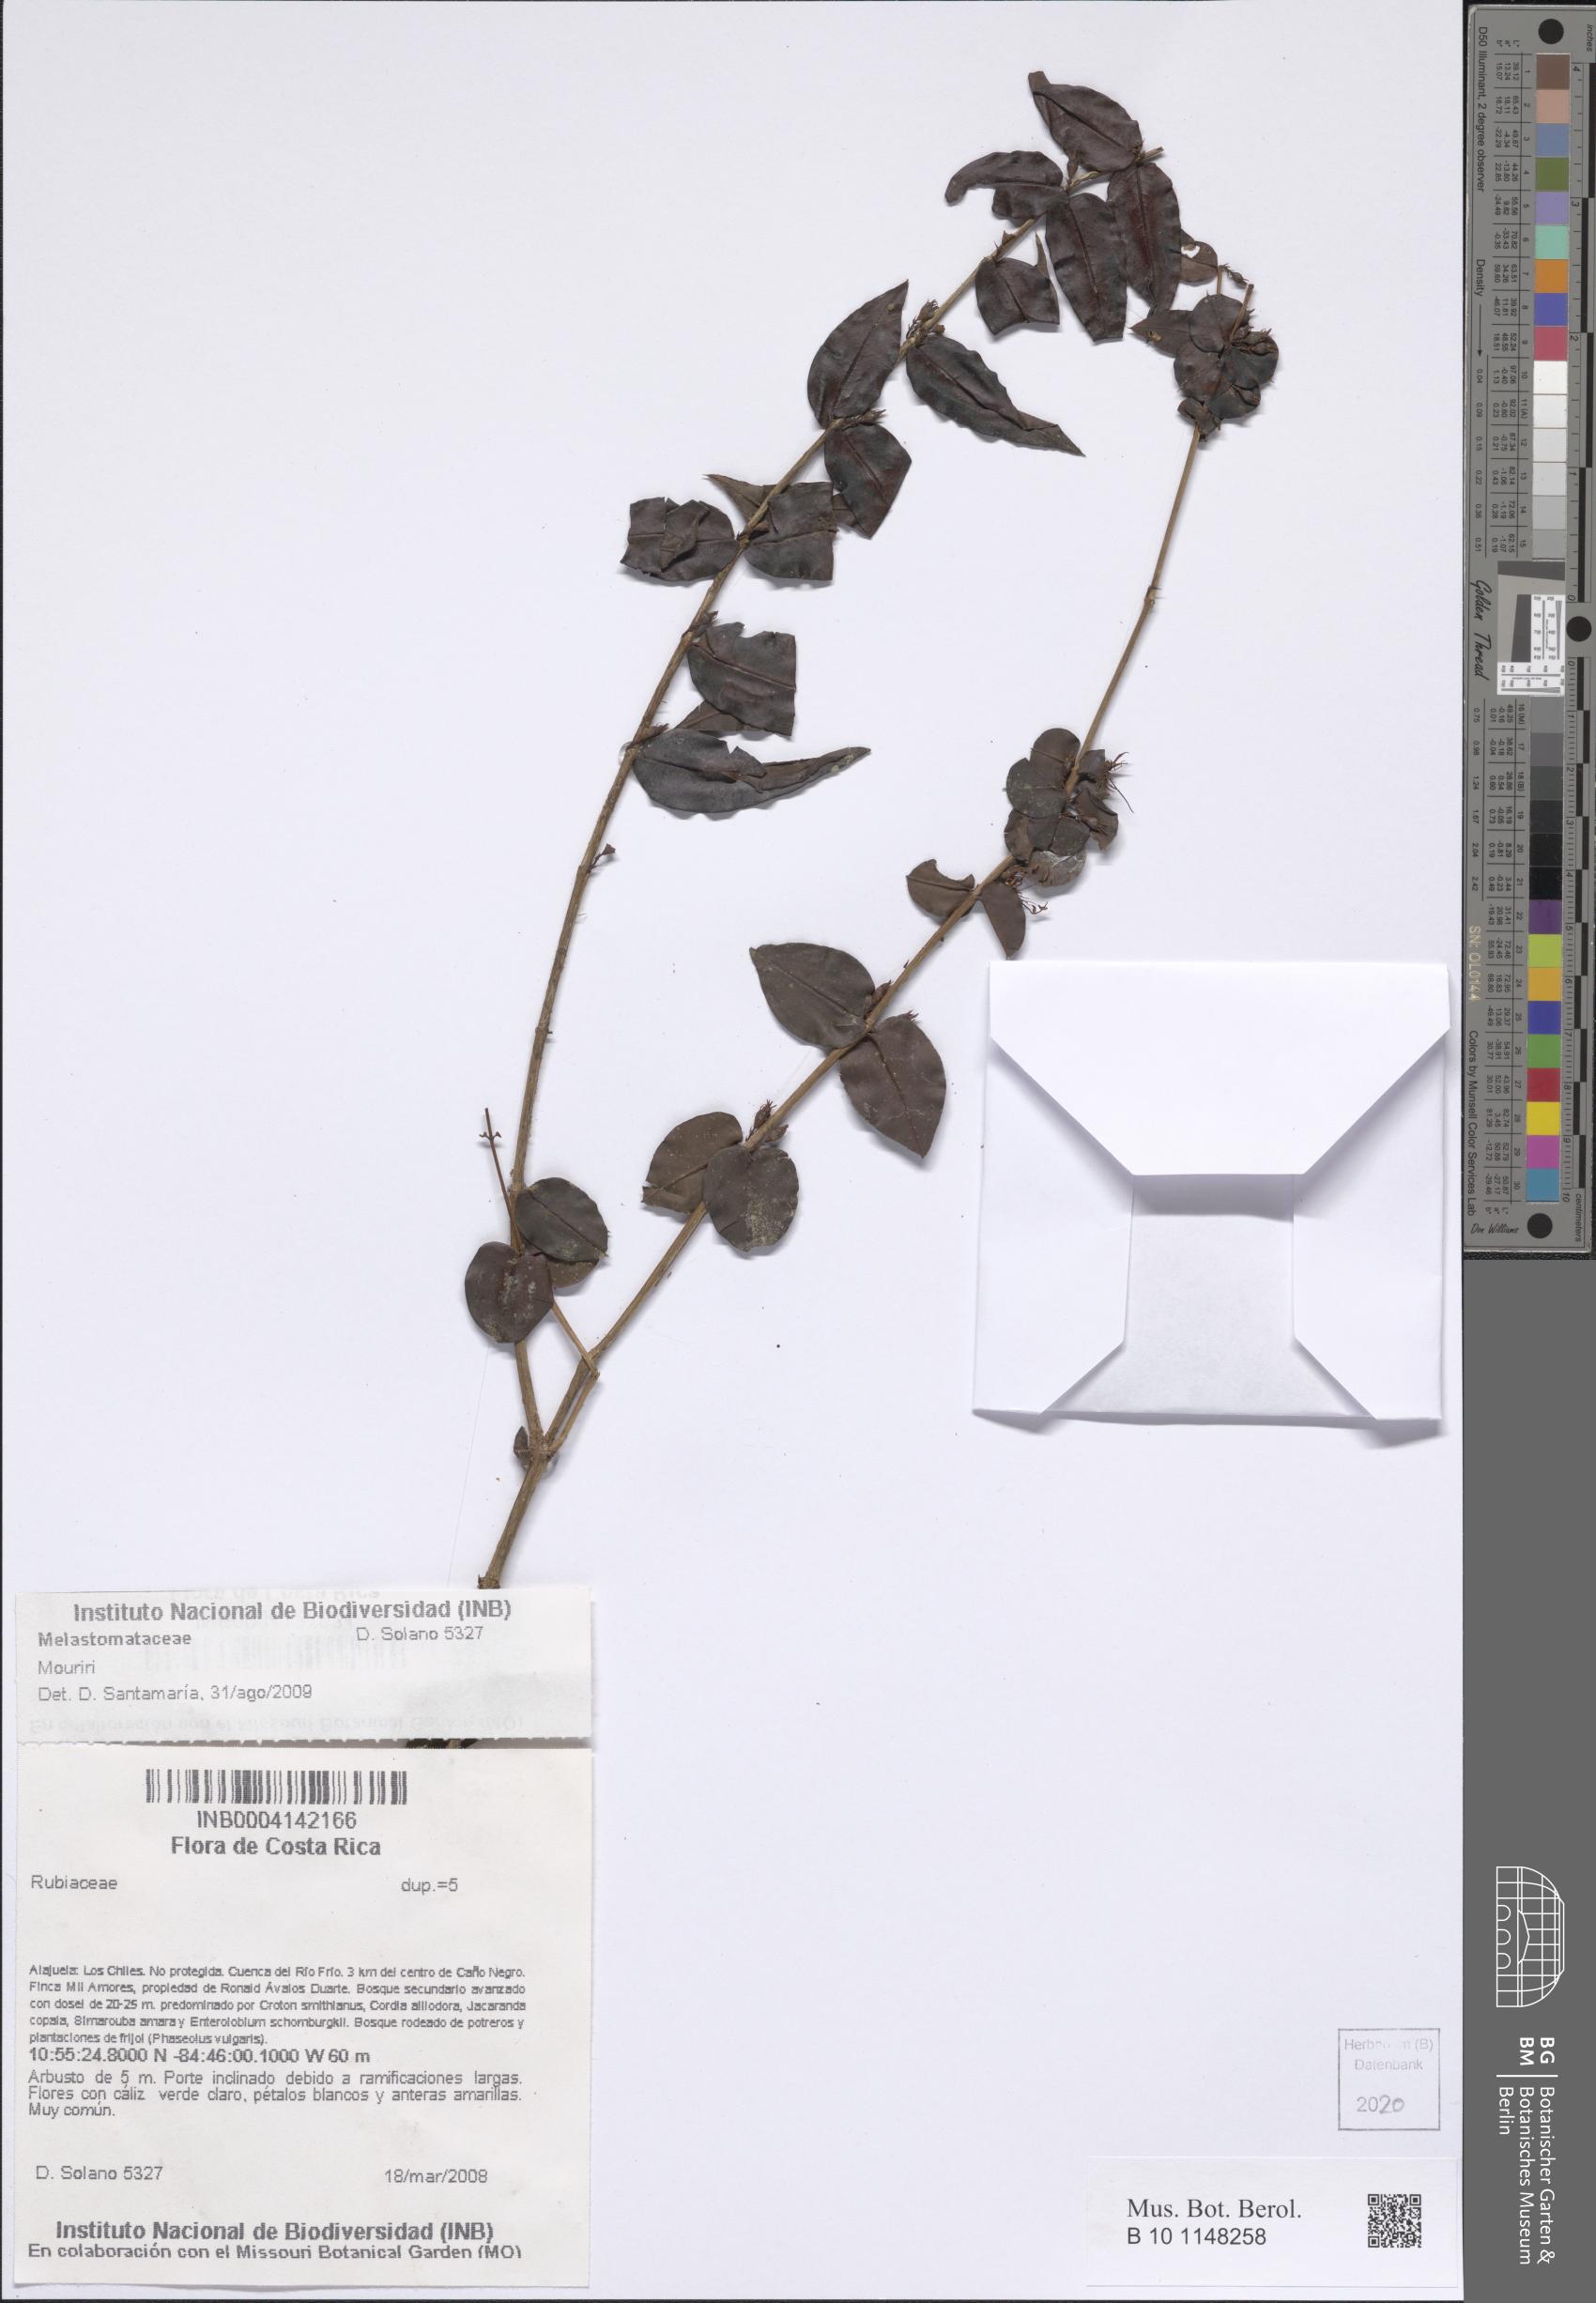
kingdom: Plantae
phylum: Tracheophyta
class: Magnoliopsida
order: Myrtales
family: Melastomataceae
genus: Mouriri
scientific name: Mouriri
